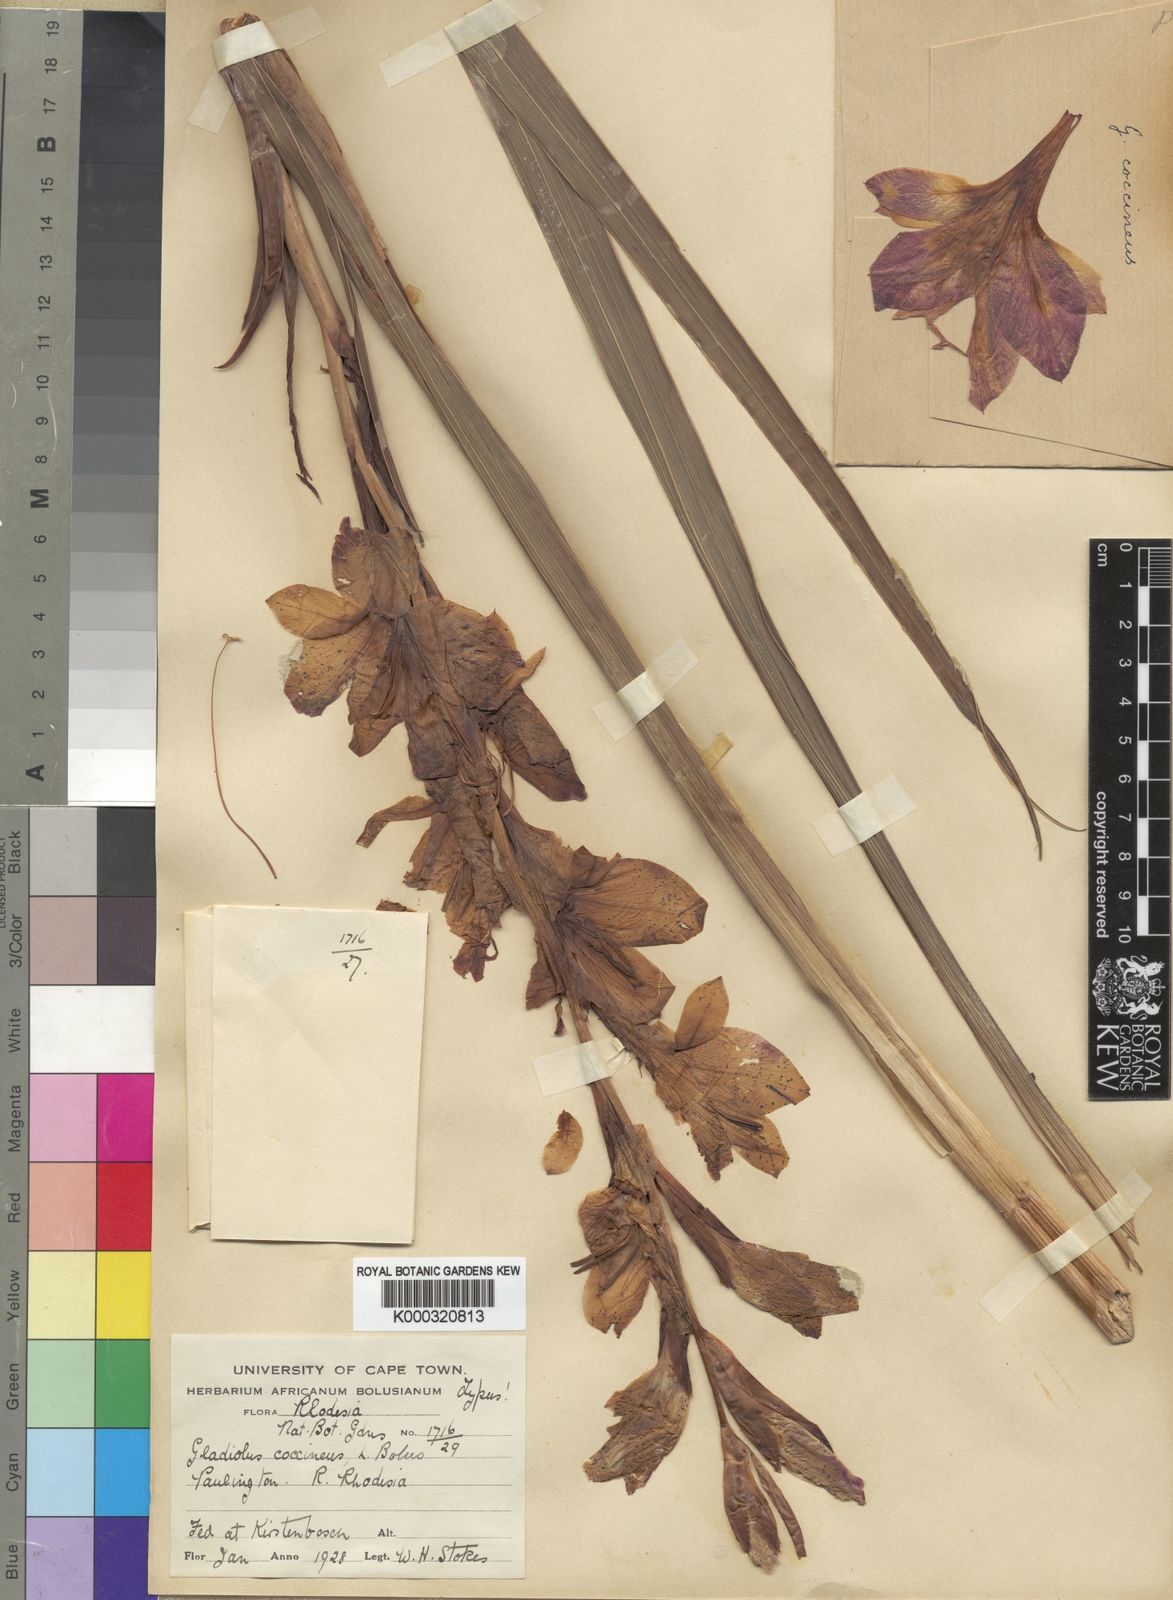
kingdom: Plantae
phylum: Tracheophyta
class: Liliopsida
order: Asparagales
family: Iridaceae
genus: Gladiolus
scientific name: Gladiolus dalenii
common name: Cornflag
